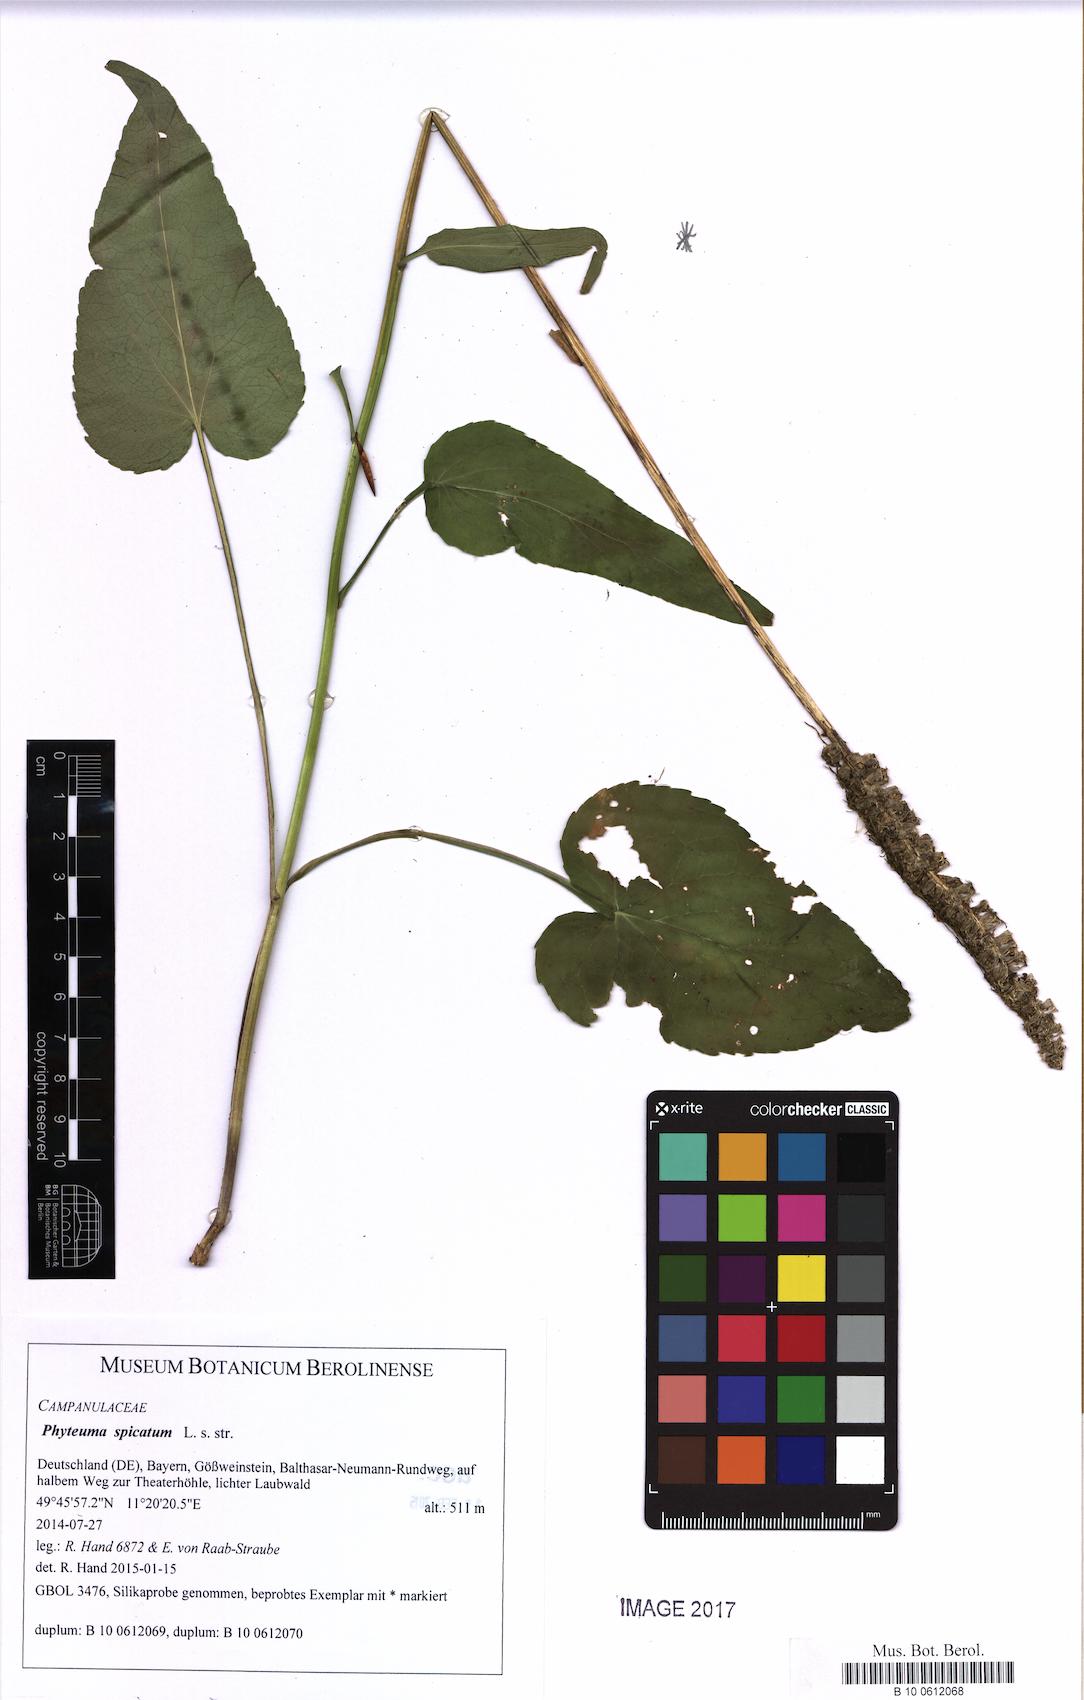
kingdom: Plantae
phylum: Tracheophyta
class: Magnoliopsida
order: Asterales
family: Campanulaceae
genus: Phyteuma
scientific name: Phyteuma spicatum
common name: Spiked rampion
